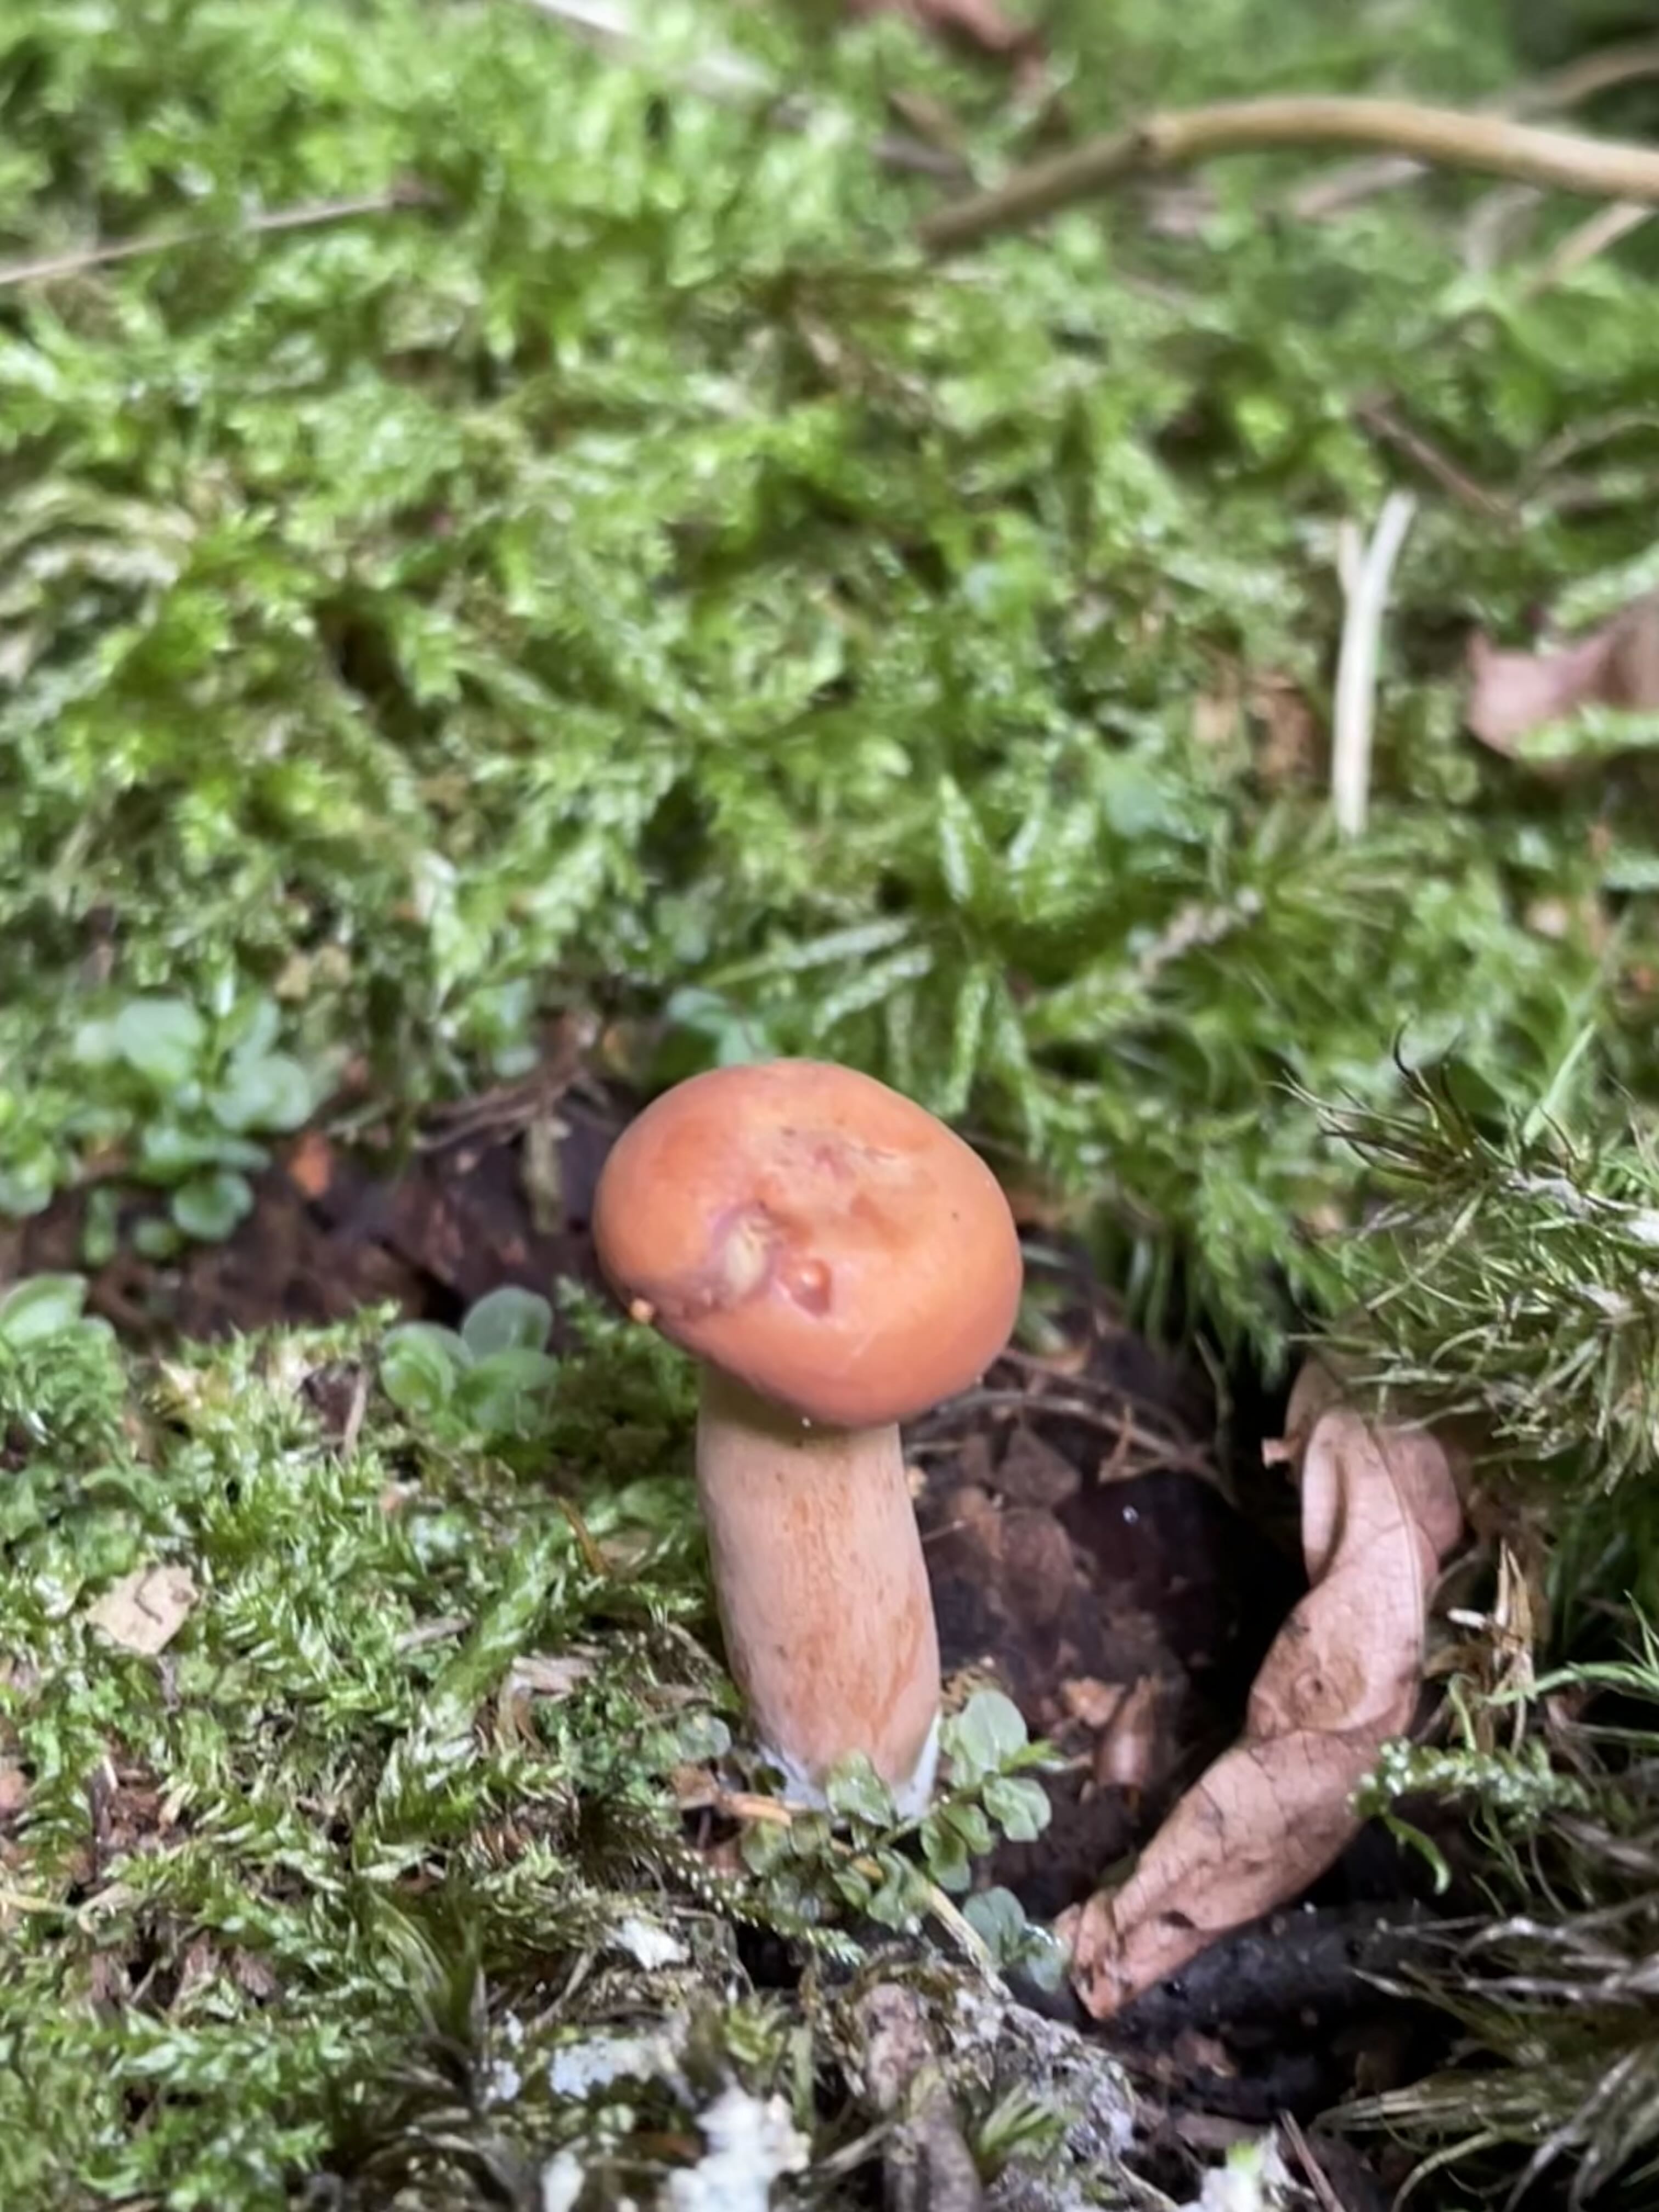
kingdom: Fungi
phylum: Basidiomycota
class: Agaricomycetes
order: Russulales
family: Russulaceae
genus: Lactarius
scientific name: Lactarius
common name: mælkehat
